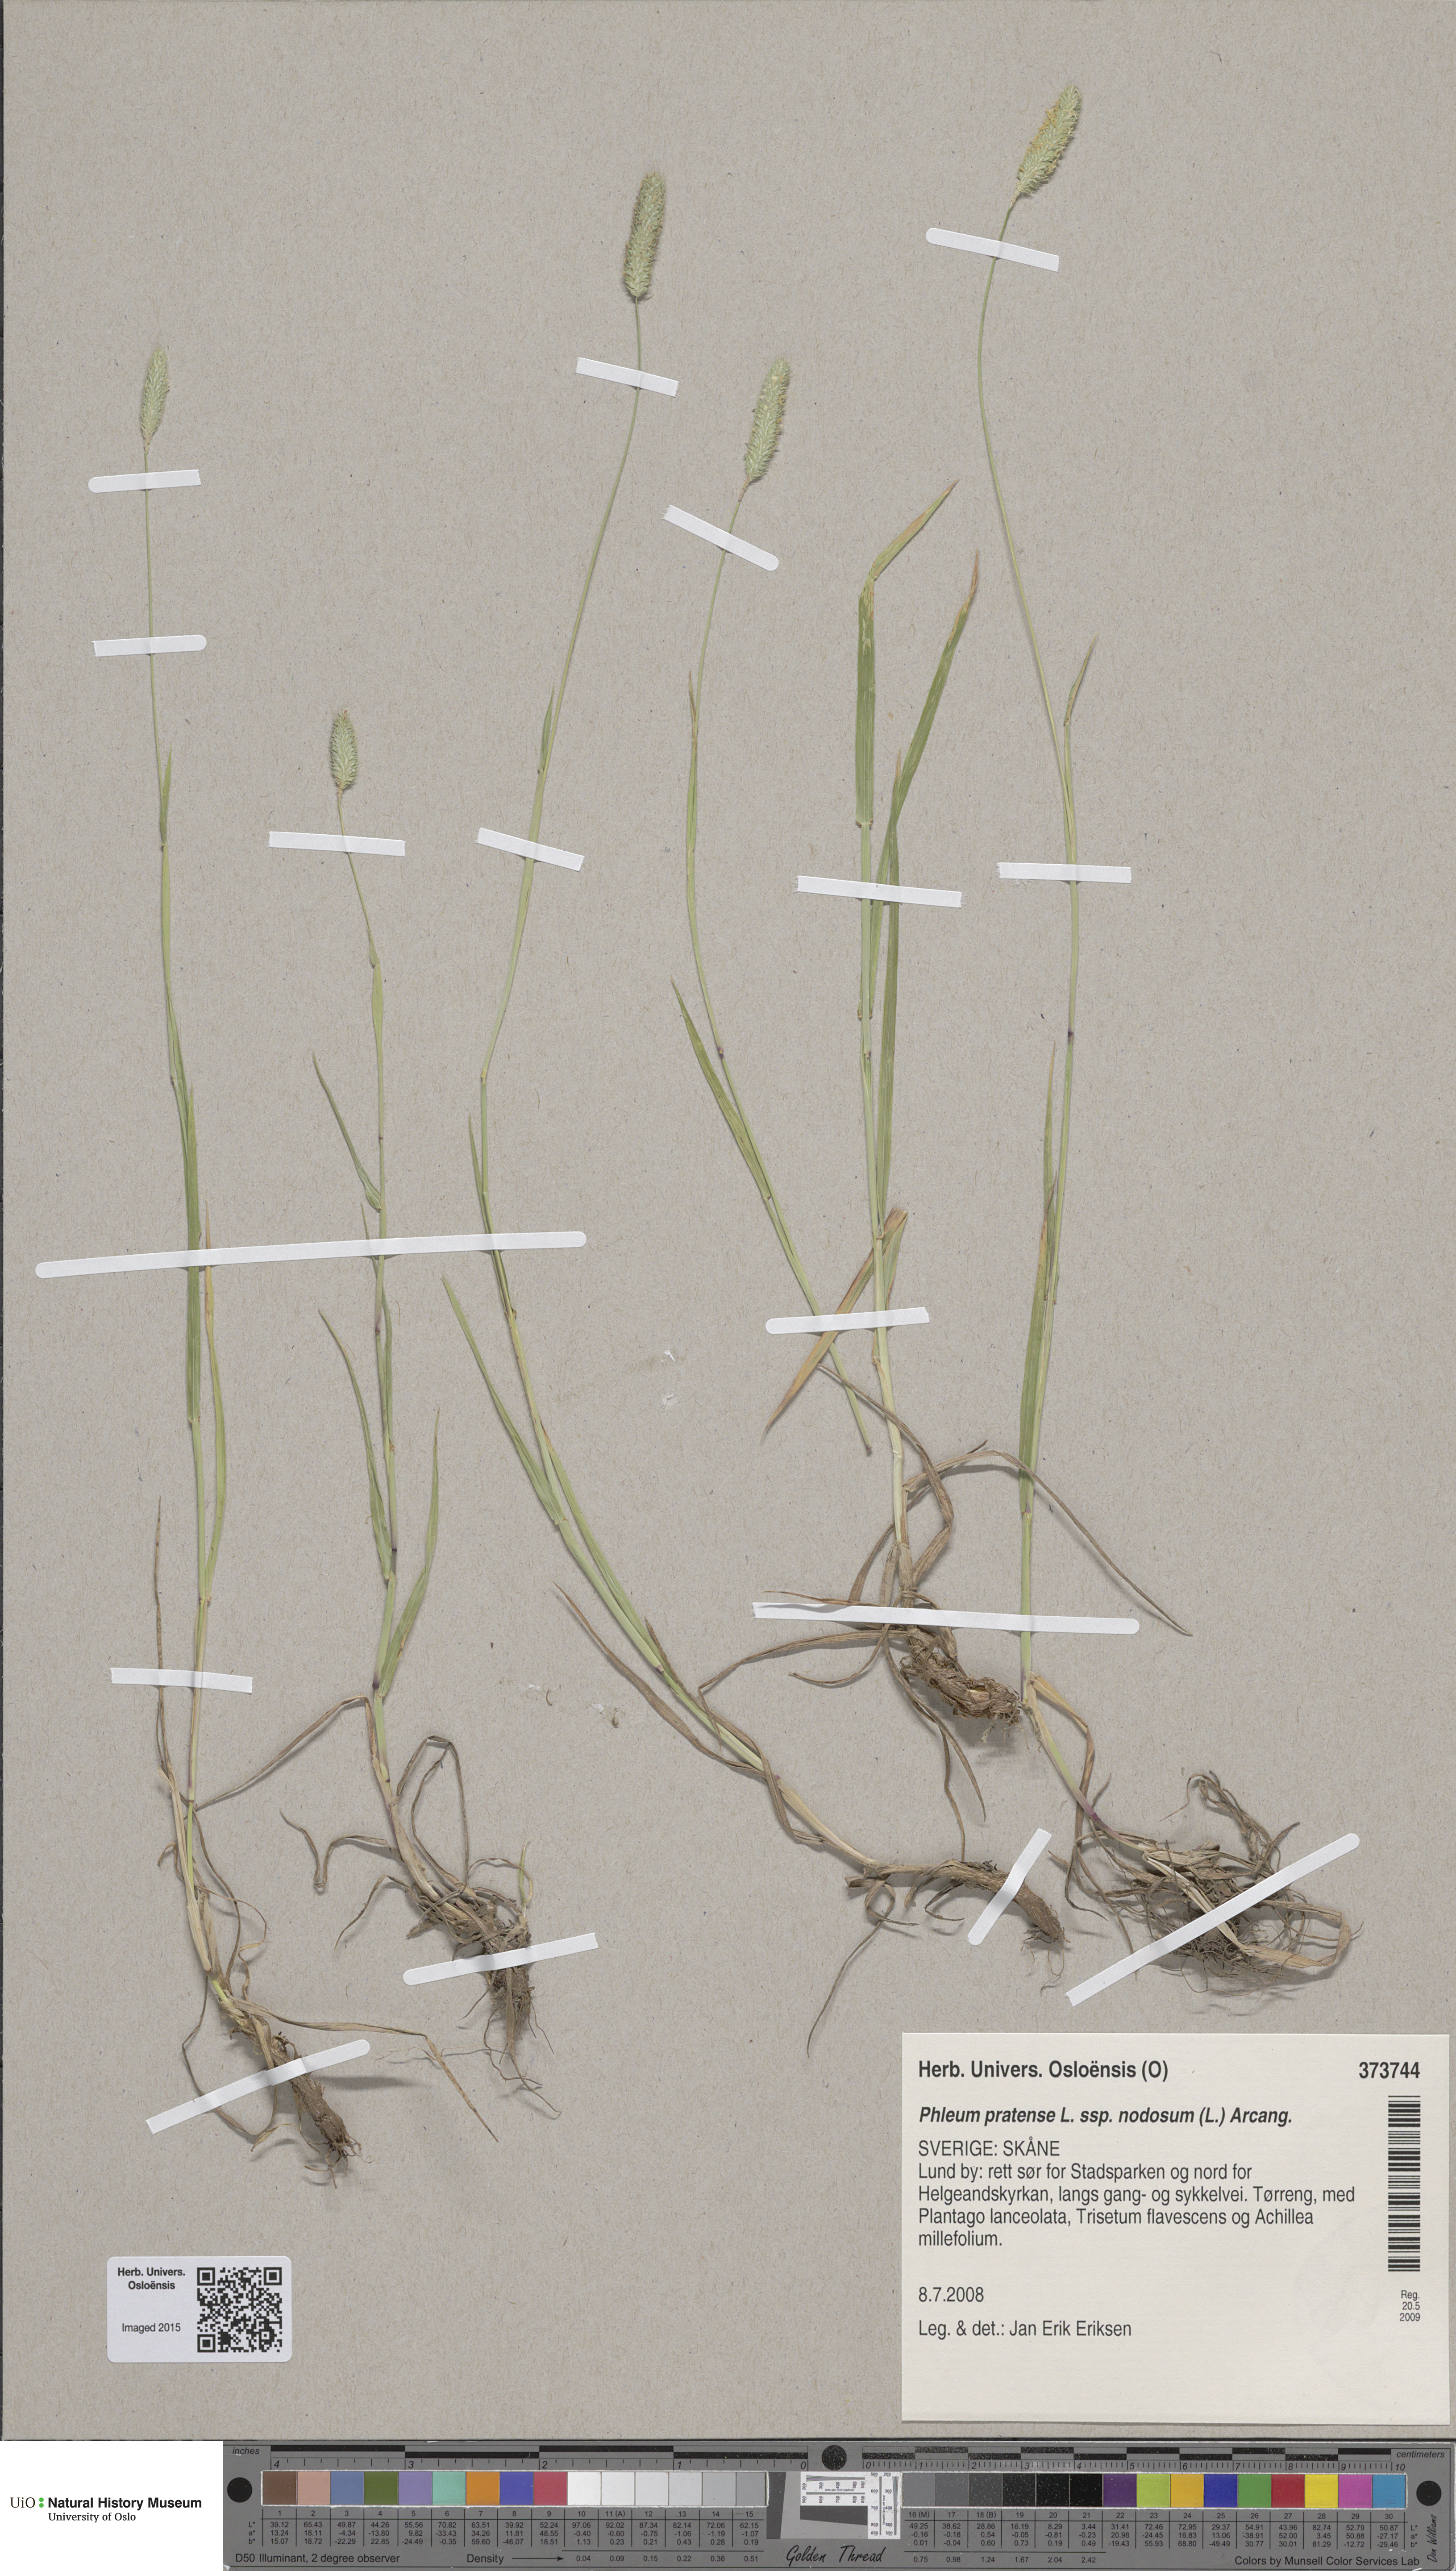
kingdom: Plantae
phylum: Tracheophyta
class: Liliopsida
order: Poales
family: Poaceae
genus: Phleum
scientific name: Phleum pratense
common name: Timothy grass
